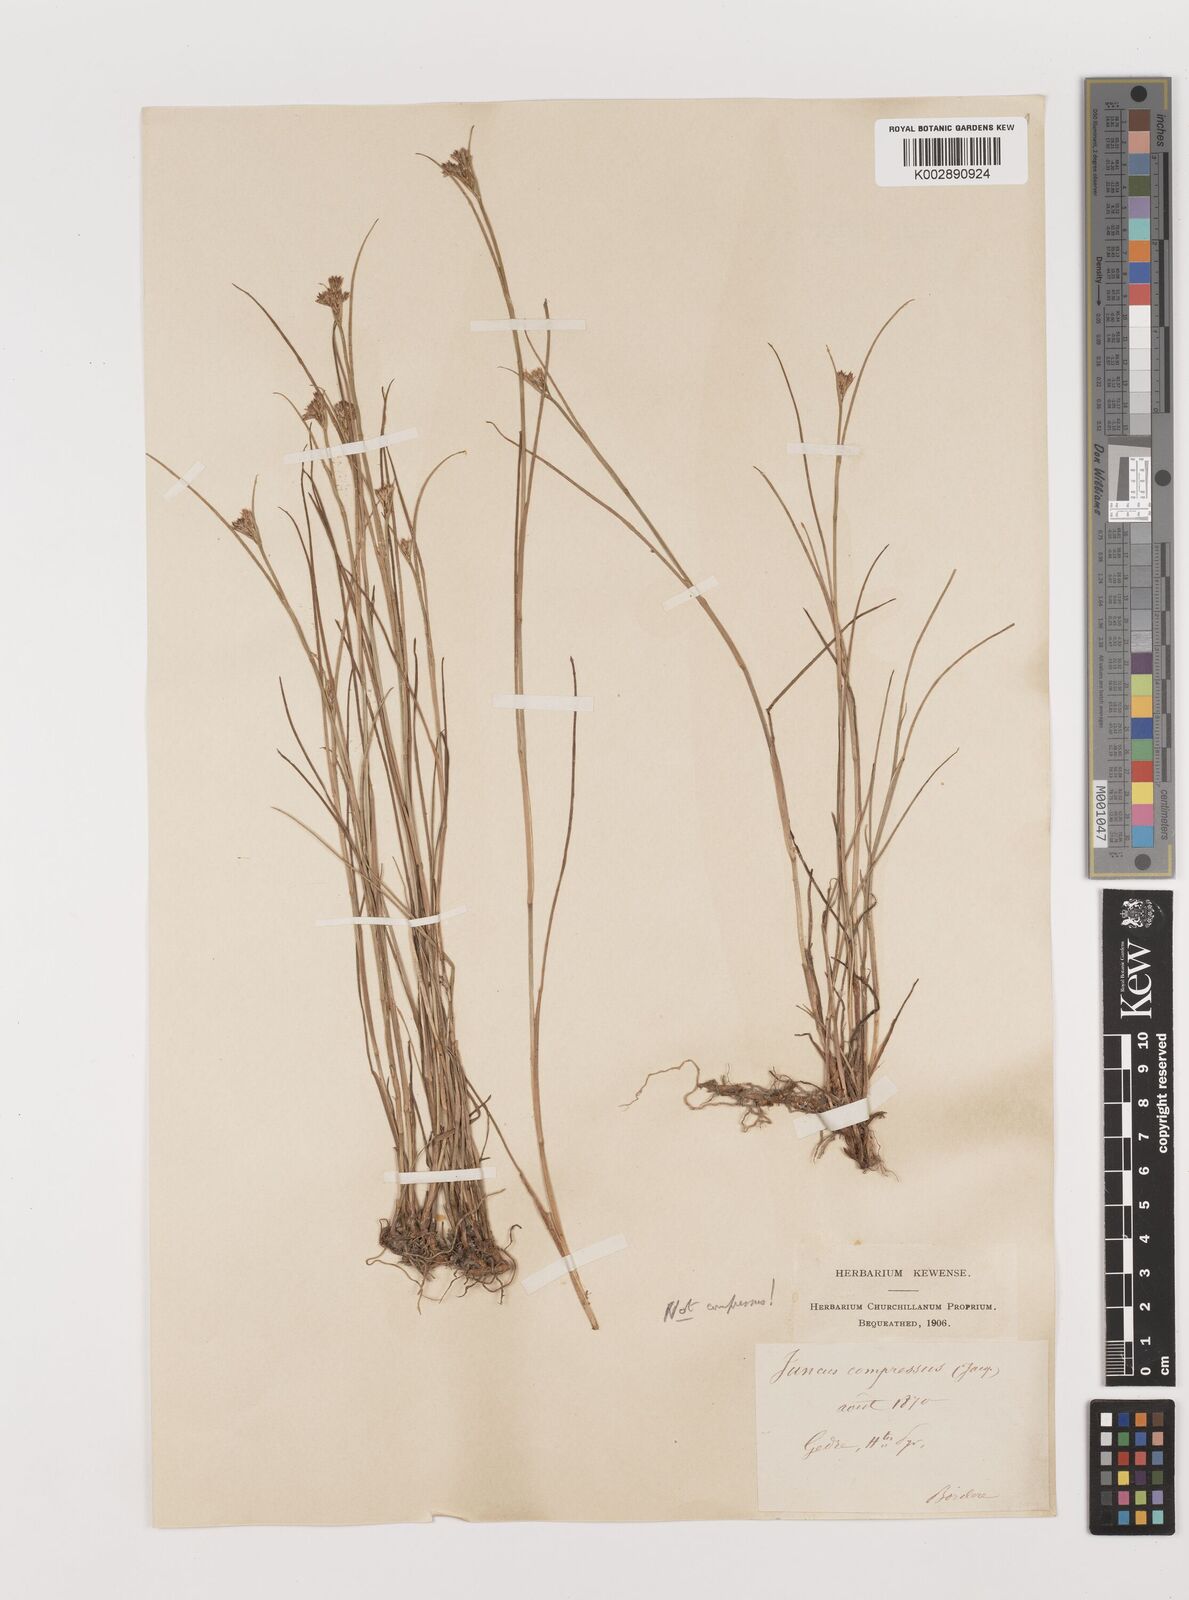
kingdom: Plantae
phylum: Tracheophyta
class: Liliopsida
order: Poales
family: Juncaceae
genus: Juncus
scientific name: Juncus
